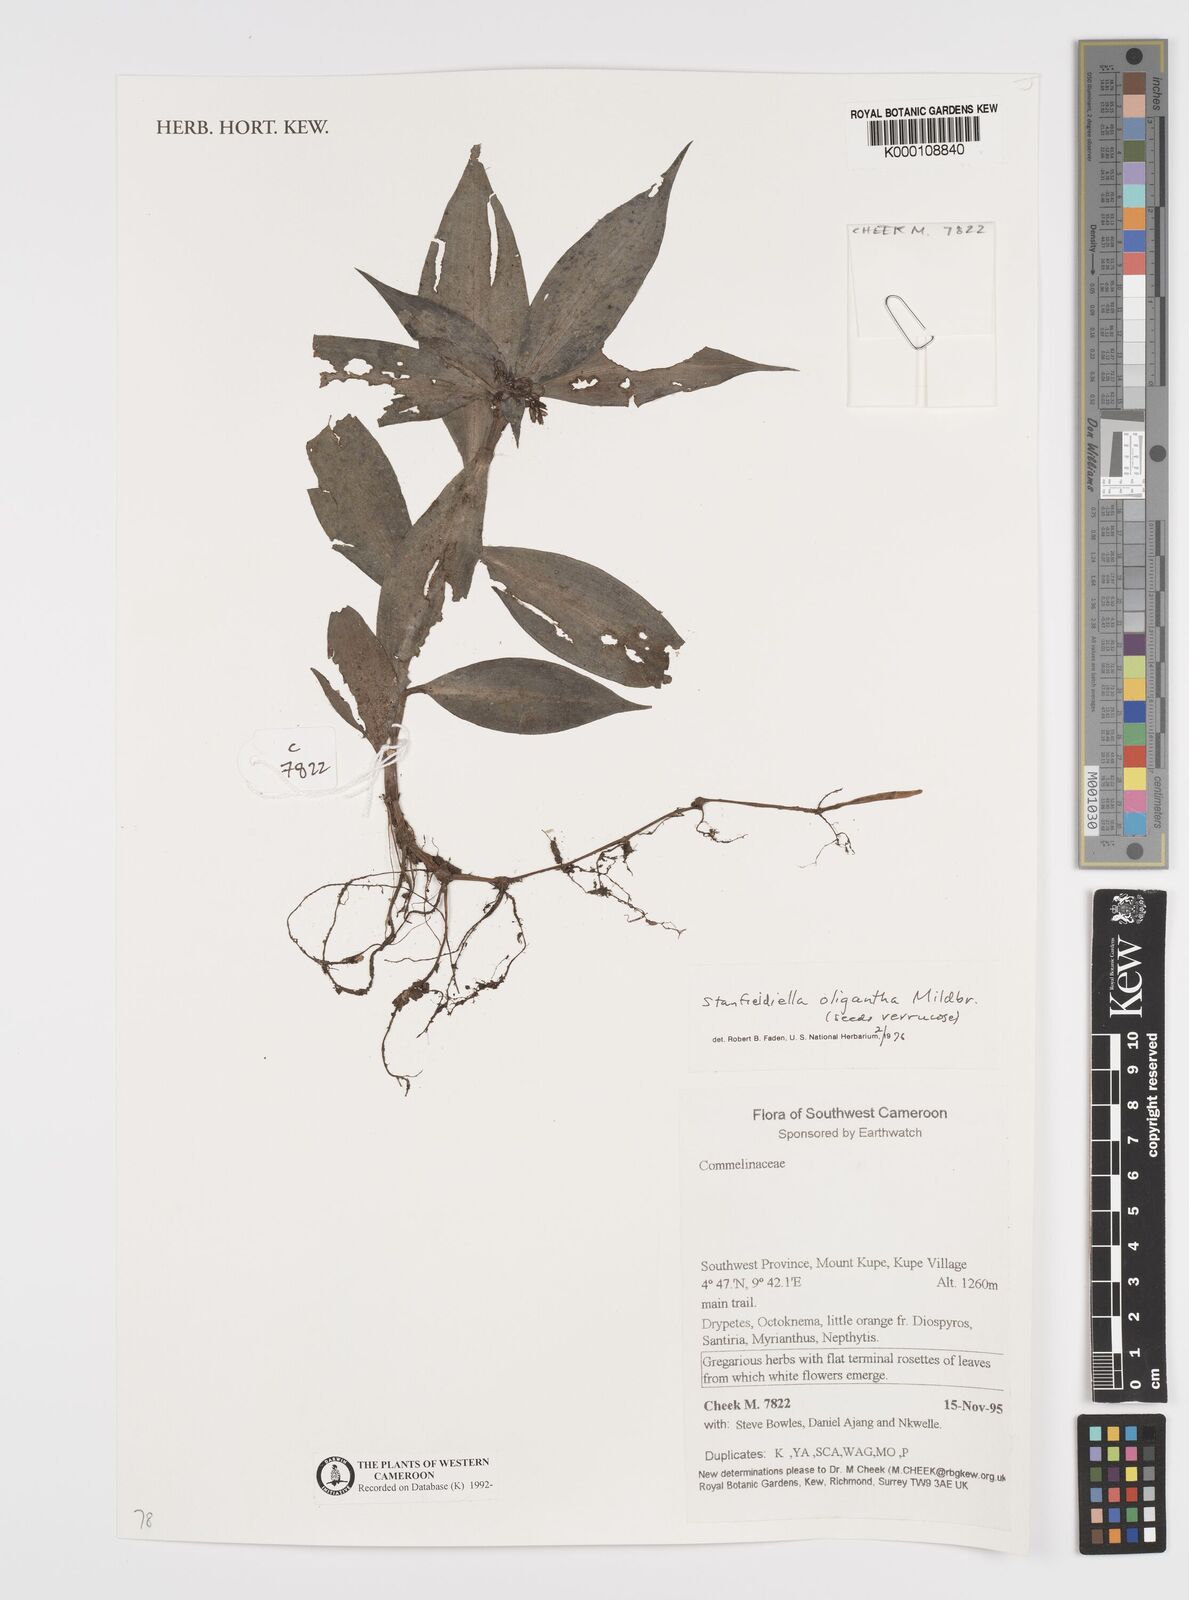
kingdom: Plantae
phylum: Tracheophyta
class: Liliopsida
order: Commelinales
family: Commelinaceae
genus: Stanfieldiella
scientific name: Stanfieldiella oligantha
